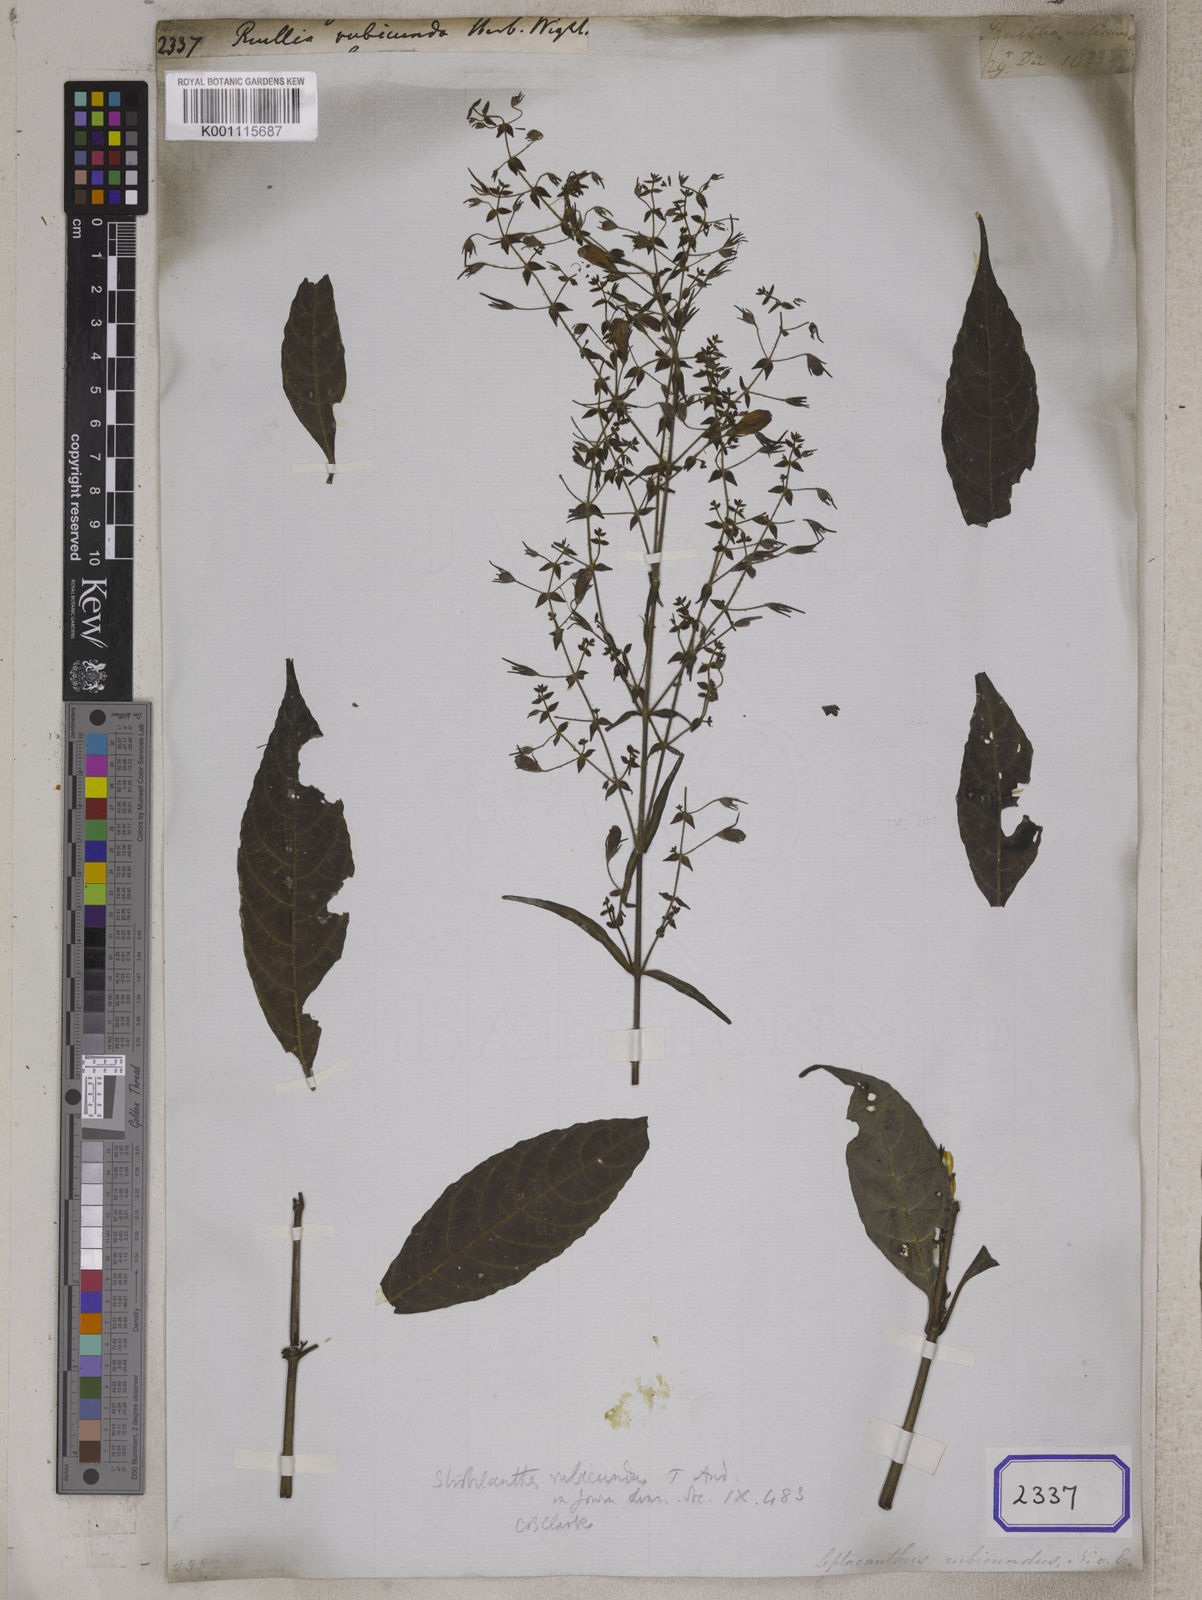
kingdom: Plantae
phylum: Tracheophyta
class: Magnoliopsida
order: Lamiales
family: Acanthaceae
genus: Strobilanthes
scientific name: Strobilanthes rubicunda
